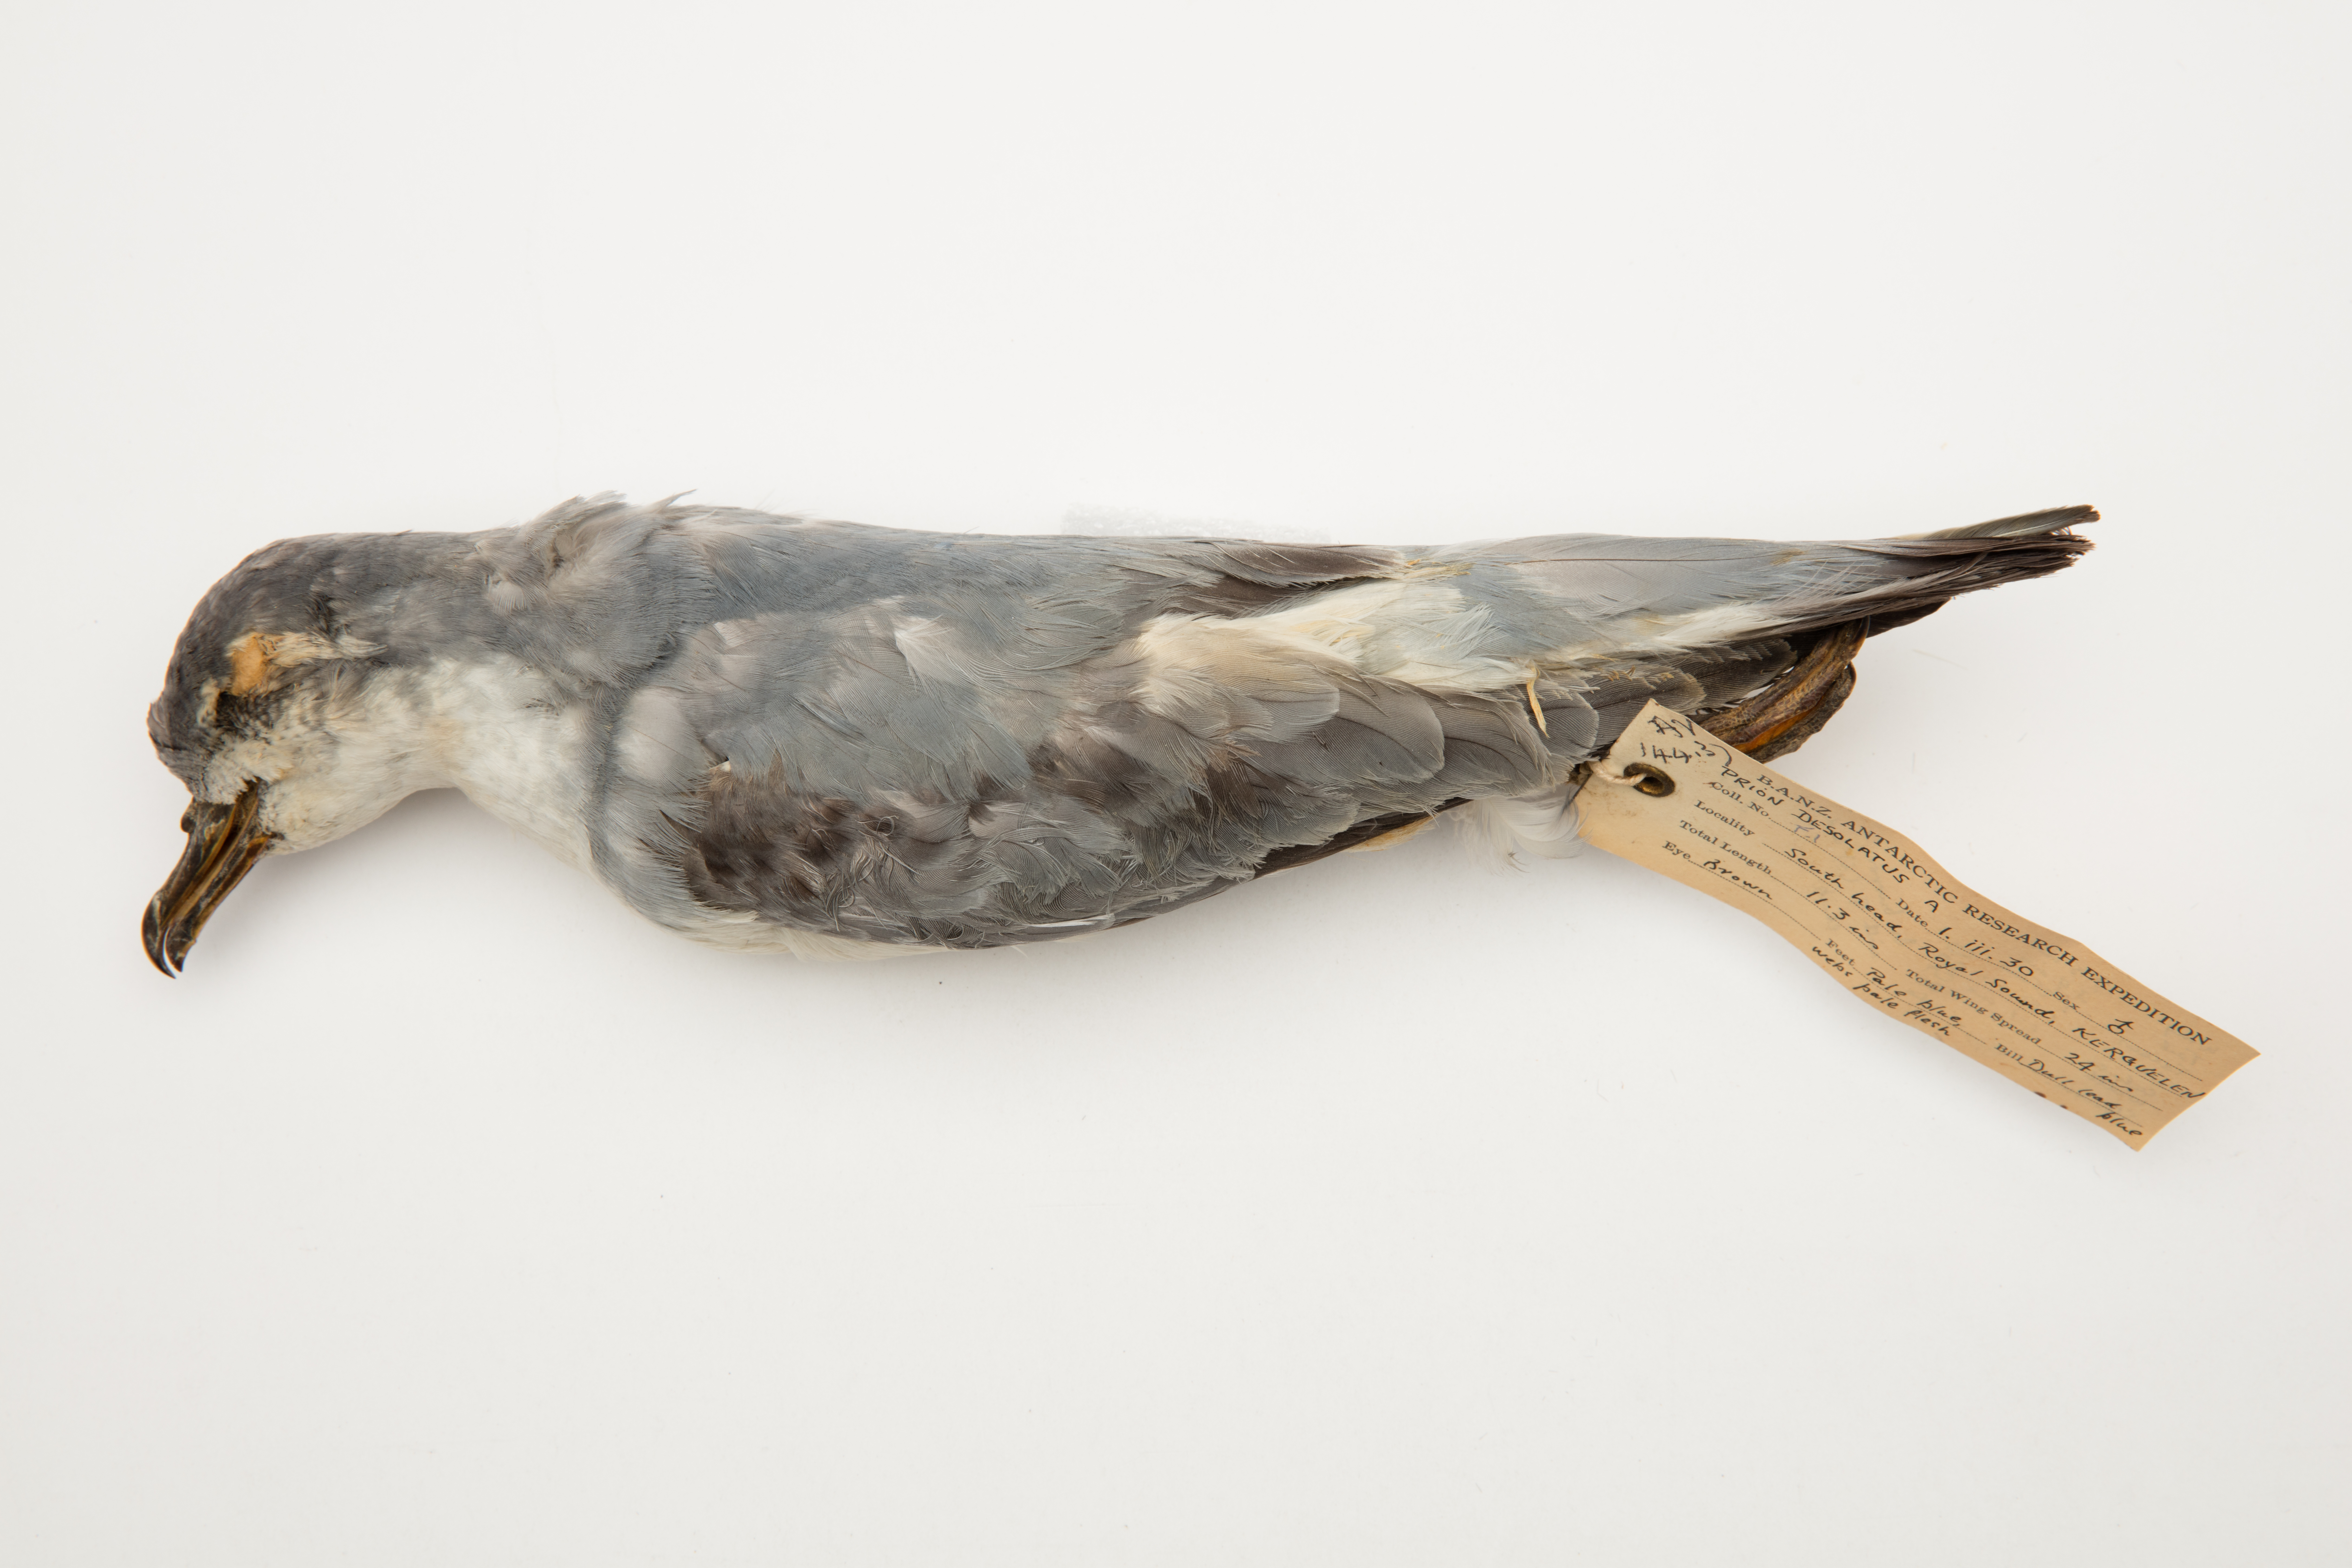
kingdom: Animalia
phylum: Chordata
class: Aves
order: Procellariiformes
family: Procellariidae
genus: Pachyptila
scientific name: Pachyptila desolata
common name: Antarctic prion
